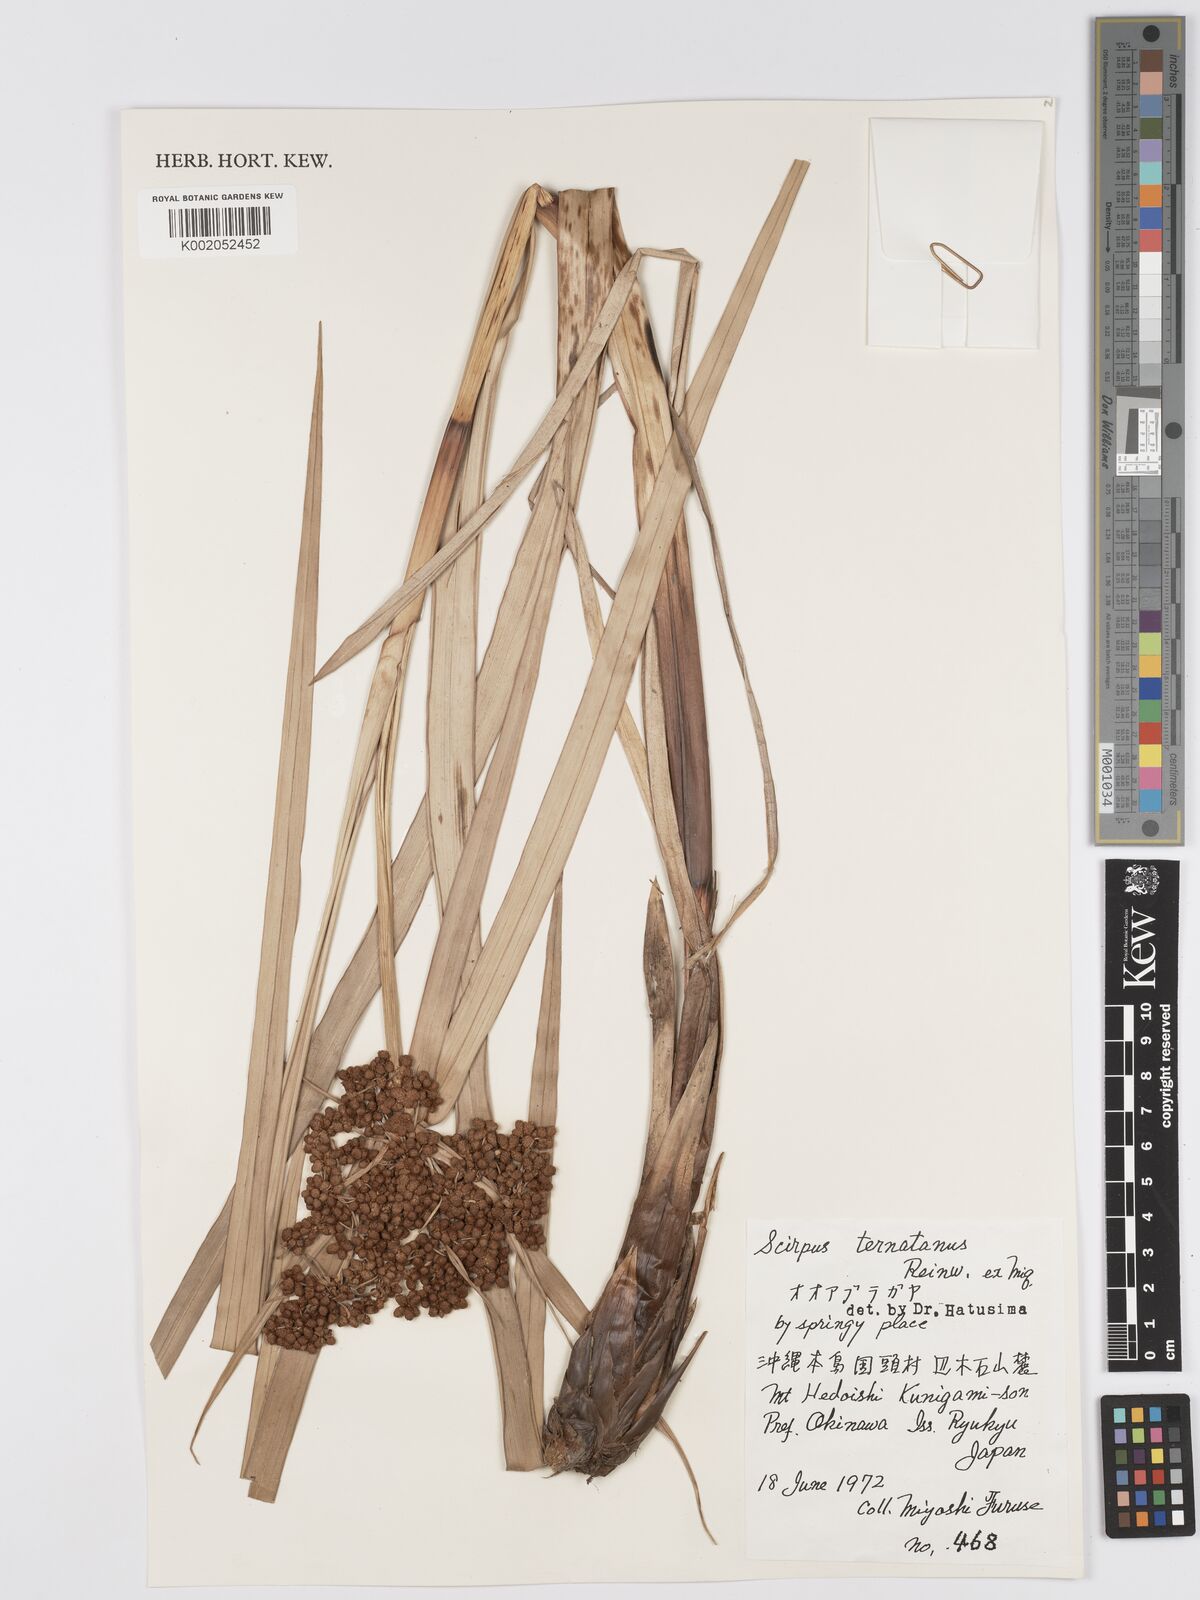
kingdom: Plantae
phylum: Tracheophyta
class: Liliopsida
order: Poales
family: Cyperaceae
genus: Scirpus
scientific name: Scirpus ternatanus
